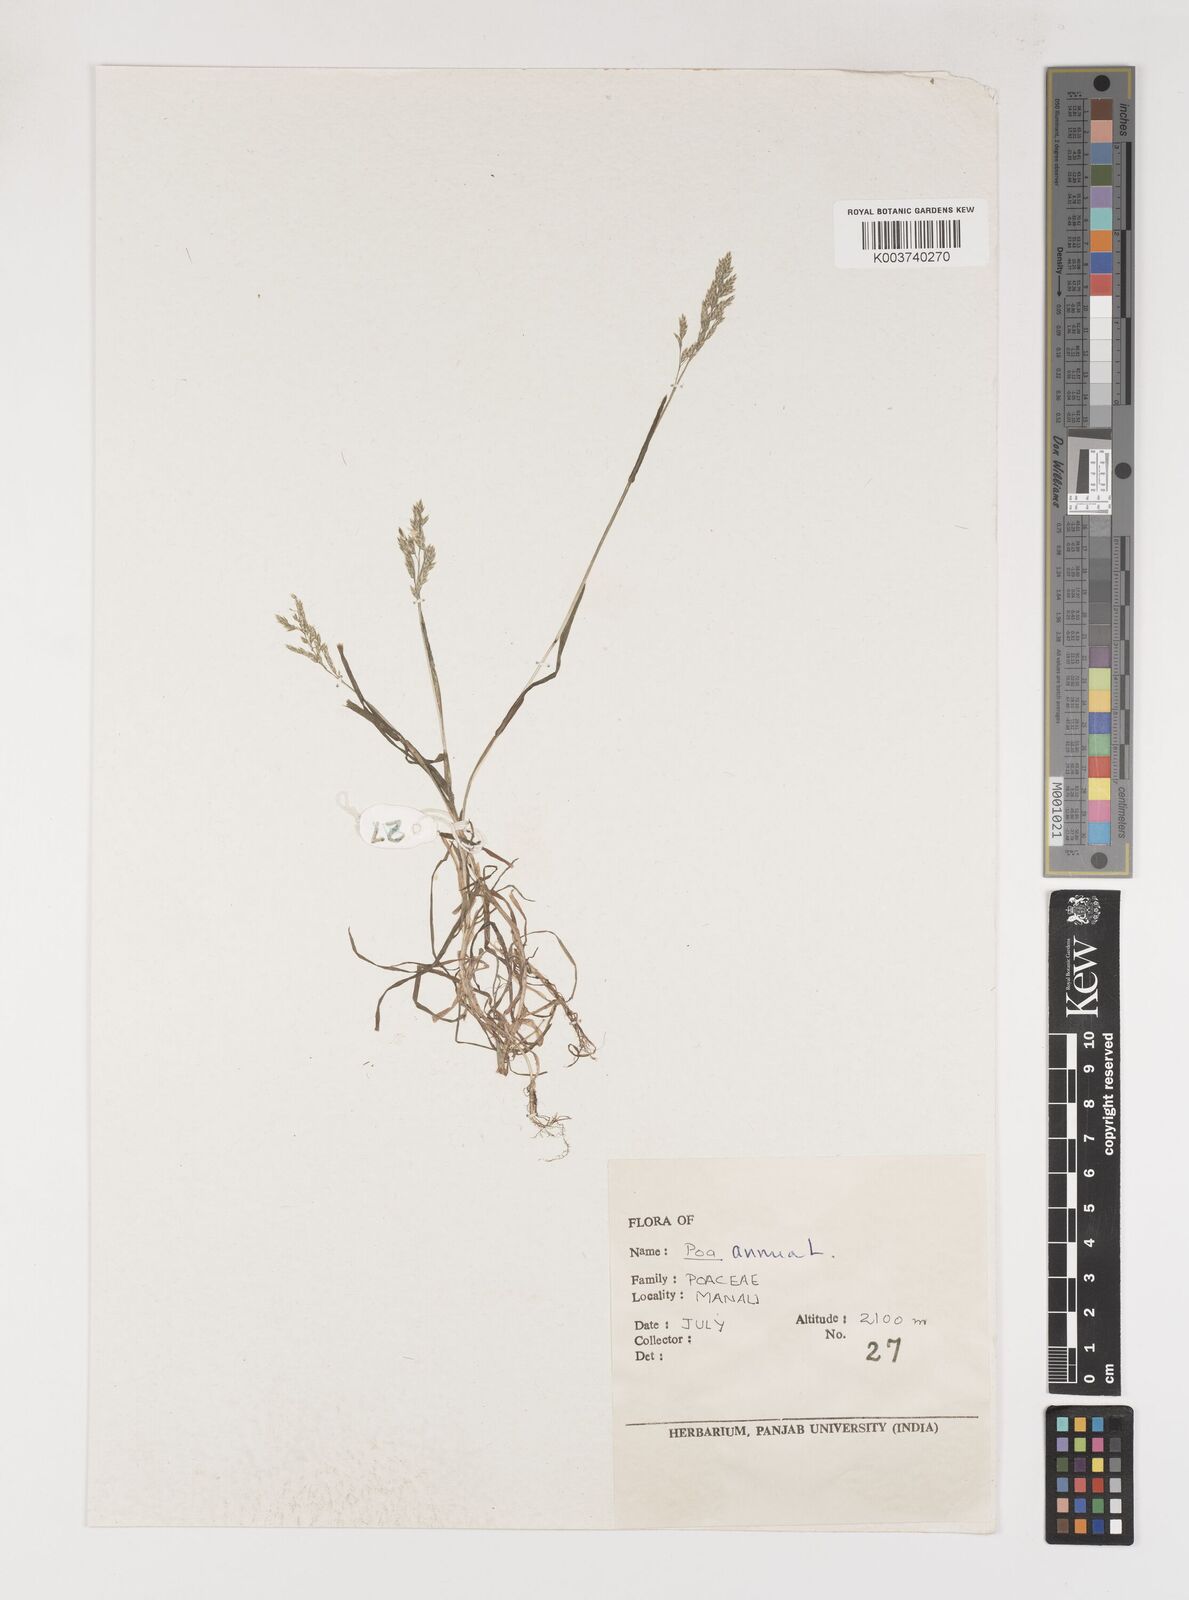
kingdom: Plantae
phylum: Tracheophyta
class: Liliopsida
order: Poales
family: Poaceae
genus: Poa
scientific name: Poa annua
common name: Annual bluegrass
